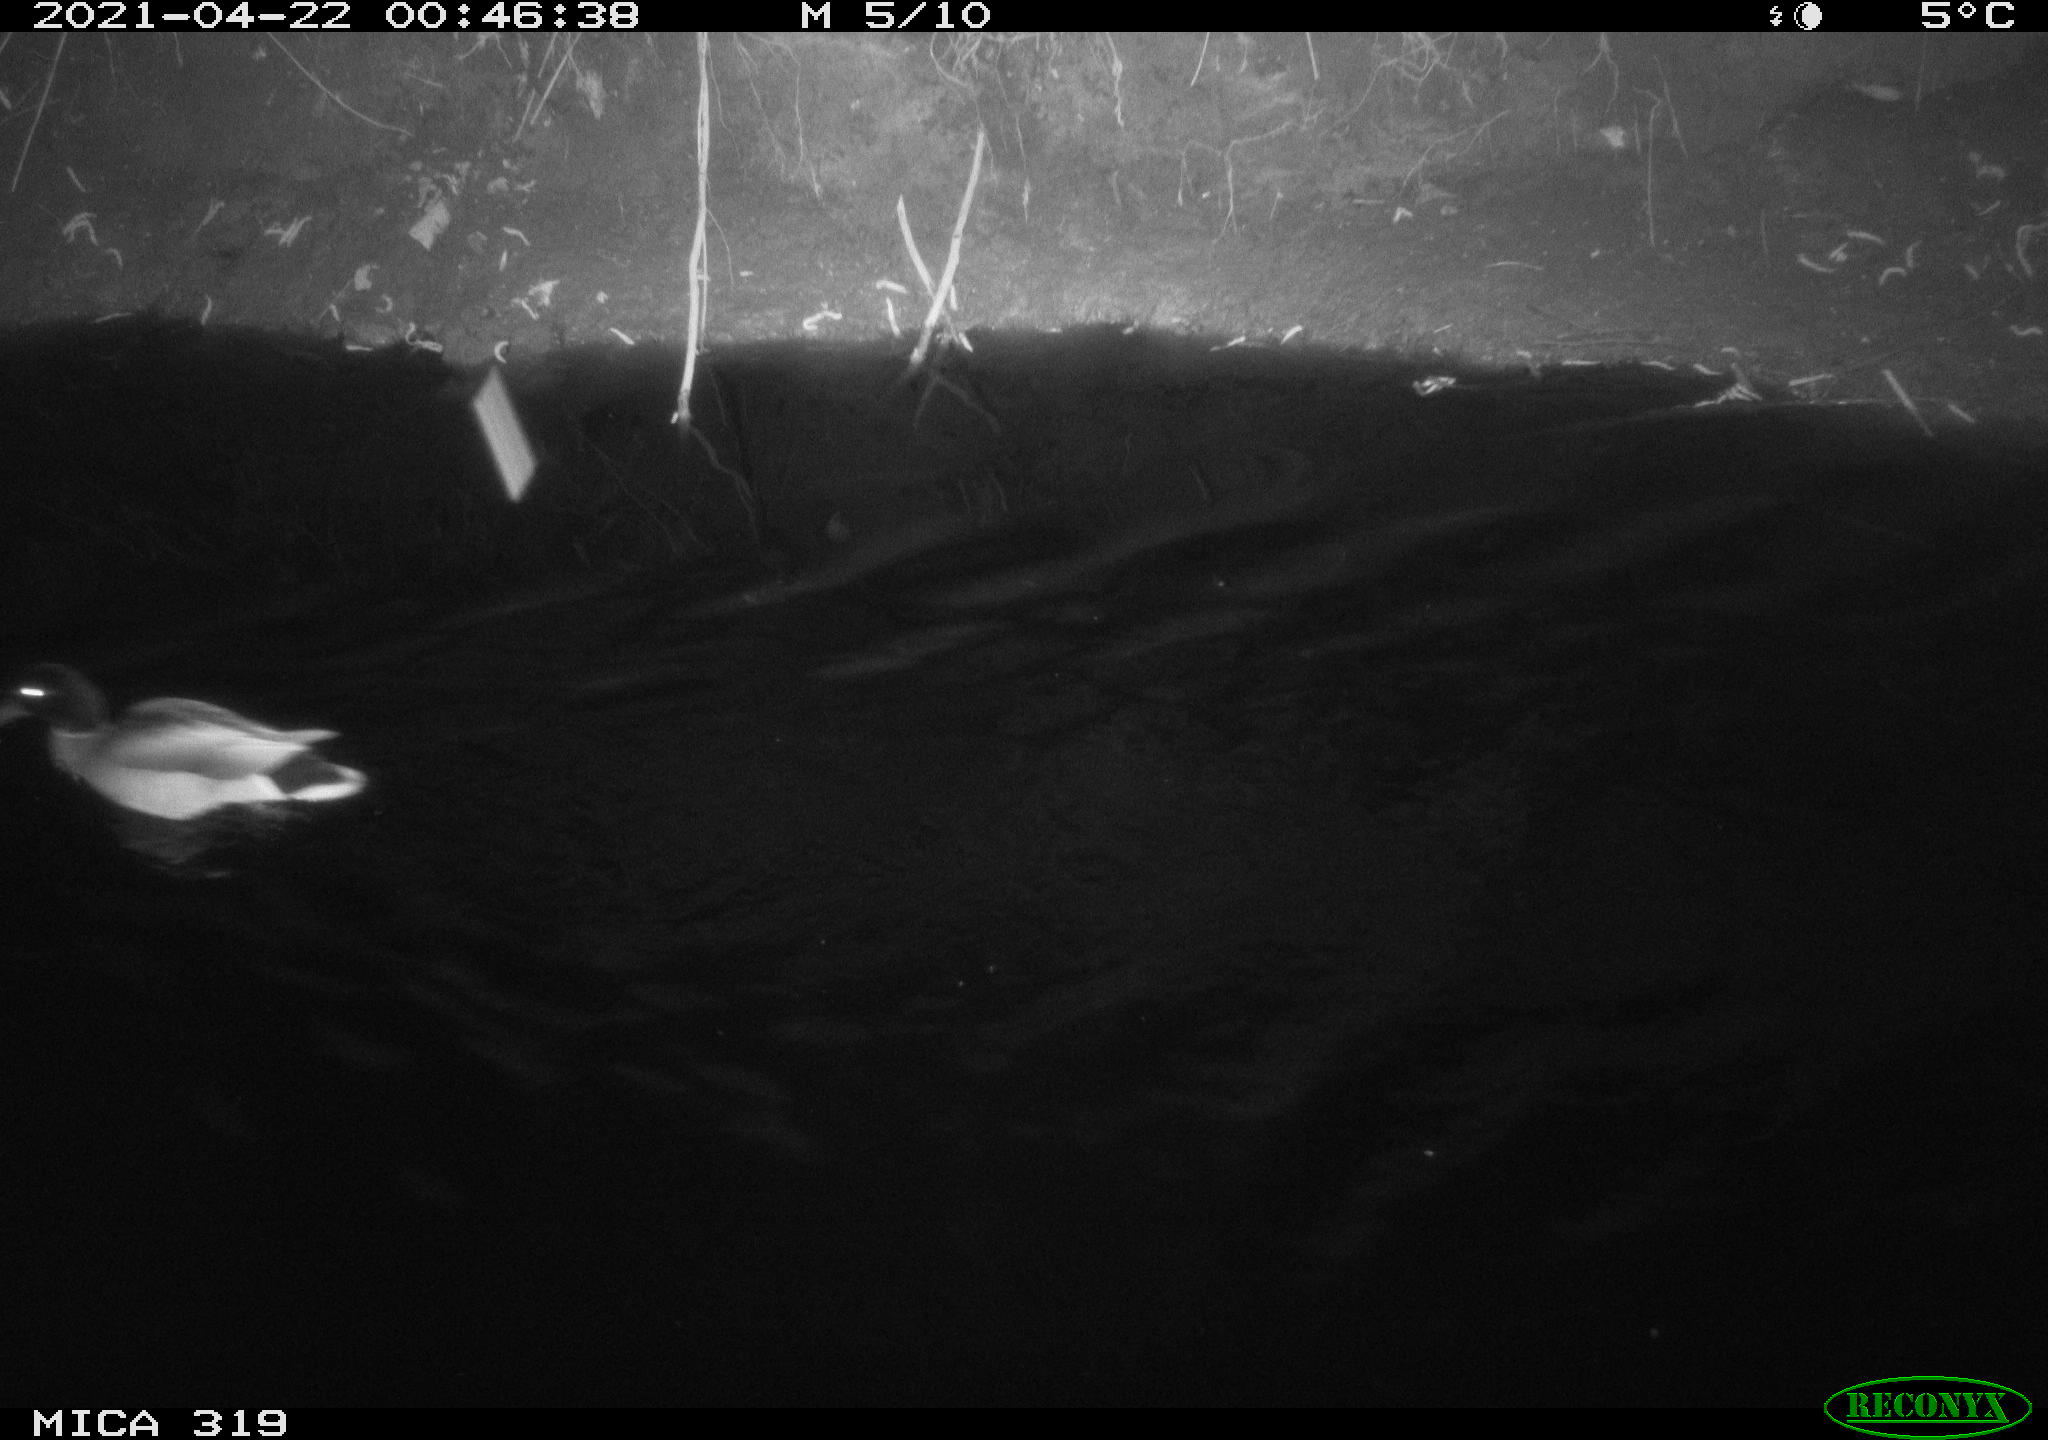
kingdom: Animalia
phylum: Chordata
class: Aves
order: Anseriformes
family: Anatidae
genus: Anas
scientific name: Anas platyrhynchos
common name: Mallard
